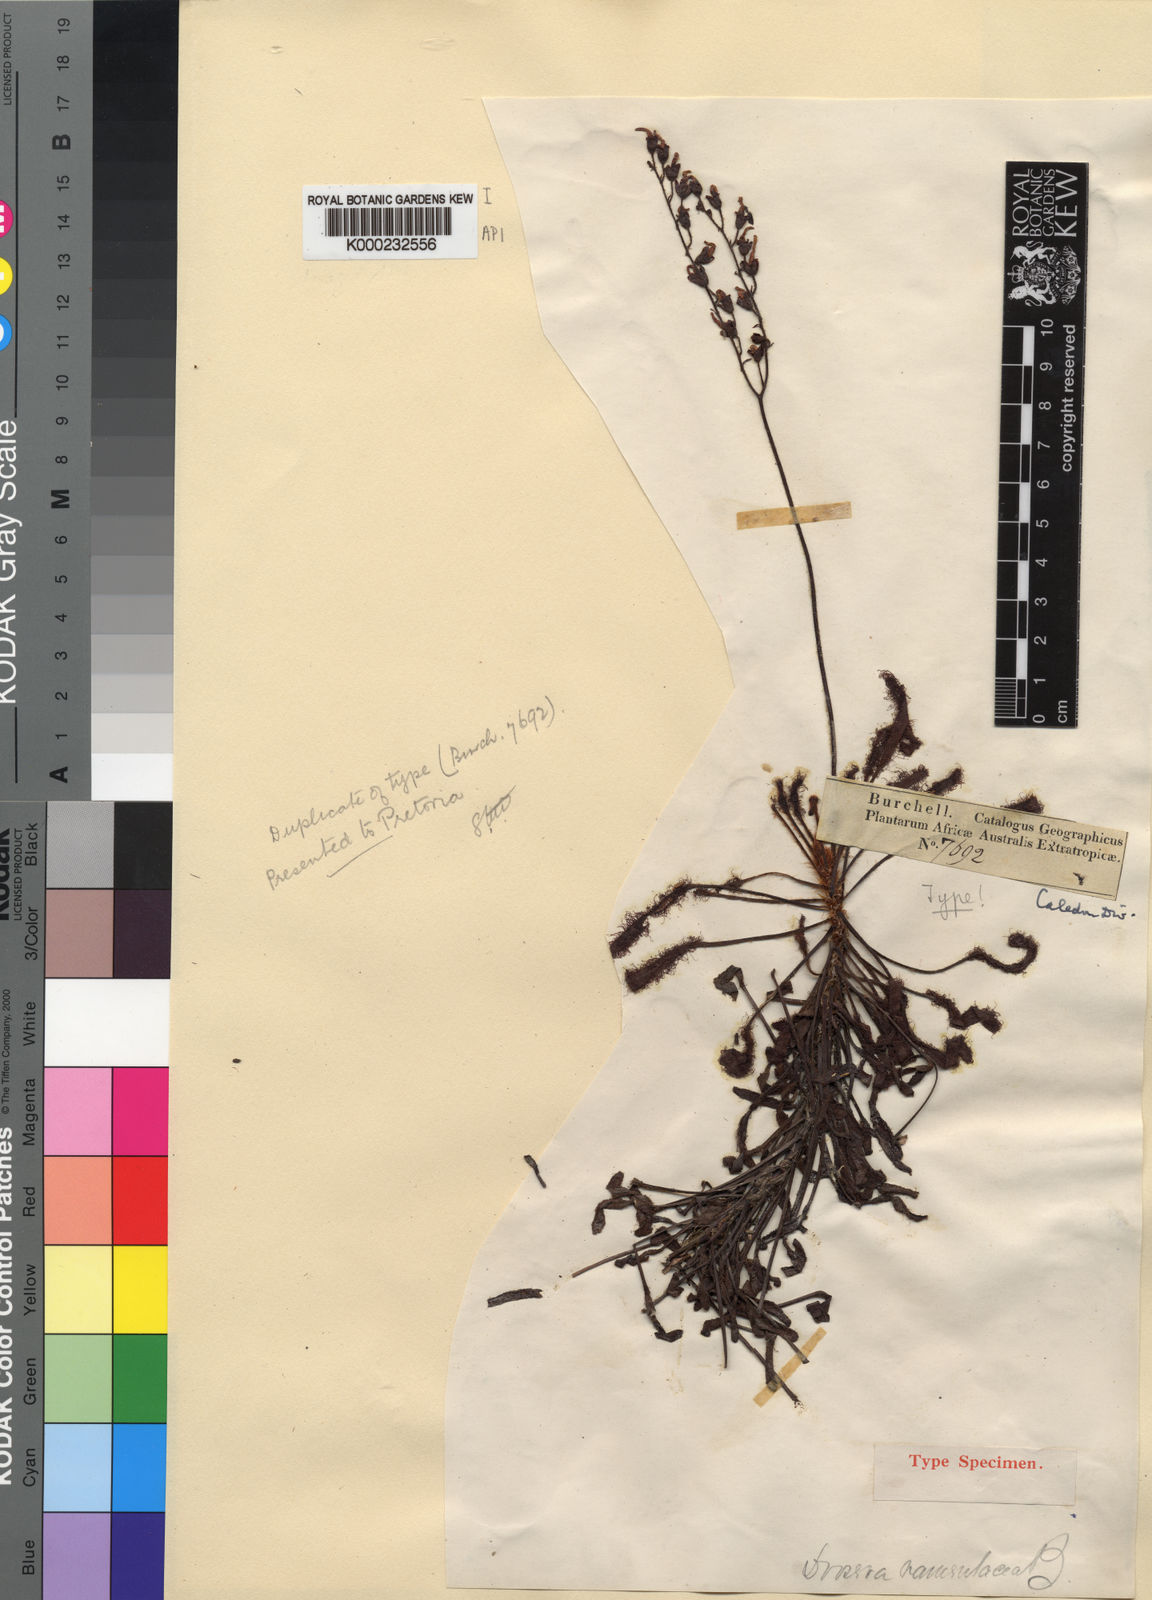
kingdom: Plantae
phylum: Tracheophyta
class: Magnoliopsida
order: Caryophyllales
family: Droseraceae
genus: Drosera
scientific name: Drosera ramentacea
